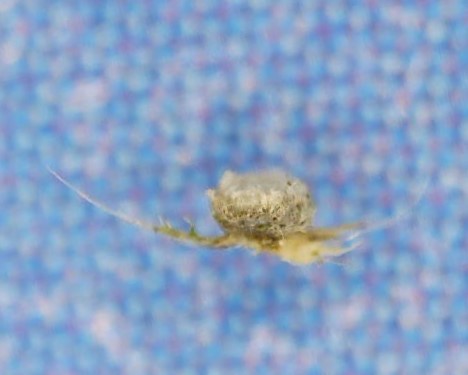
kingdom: Fungi
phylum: Basidiomycota
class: Agaricomycetes
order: Agaricales
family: Niaceae
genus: Lachnella
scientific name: Lachnella alboviolascens
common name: grå frynserede
